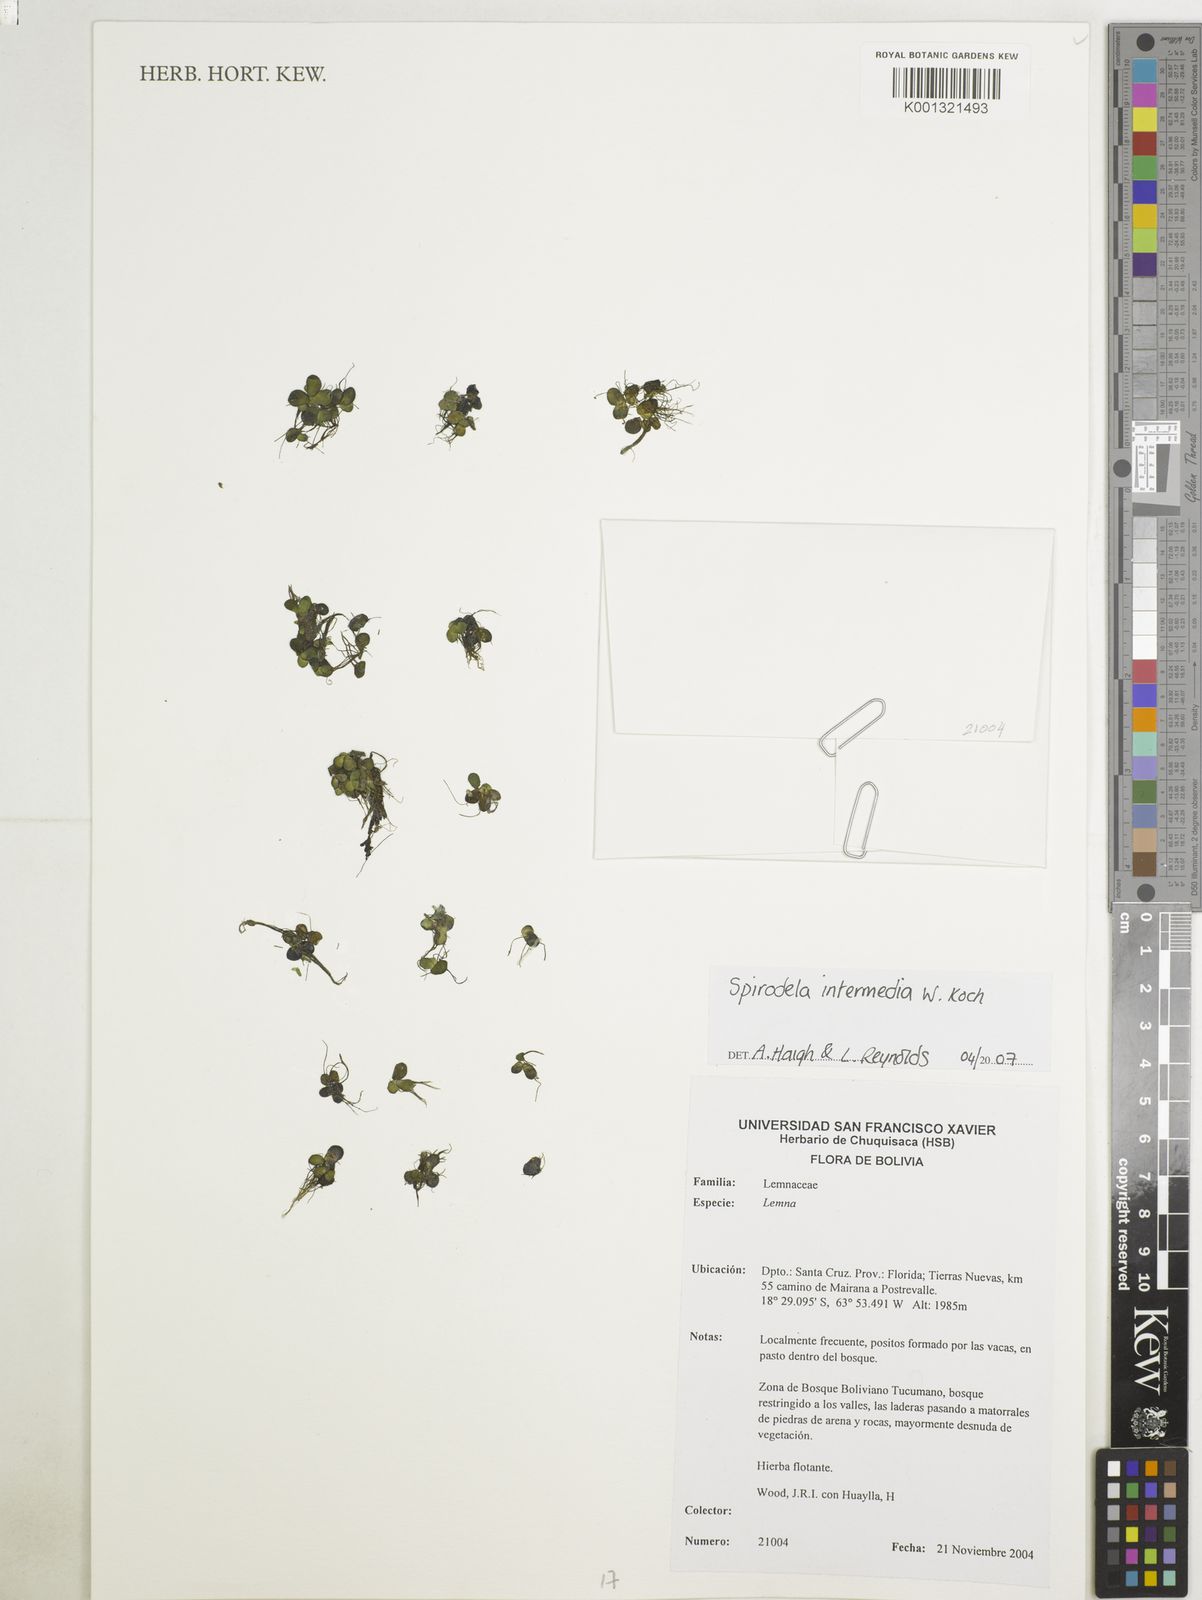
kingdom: Plantae
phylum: Tracheophyta
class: Liliopsida
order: Alismatales
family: Araceae
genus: Spirodela
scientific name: Spirodela punctata
